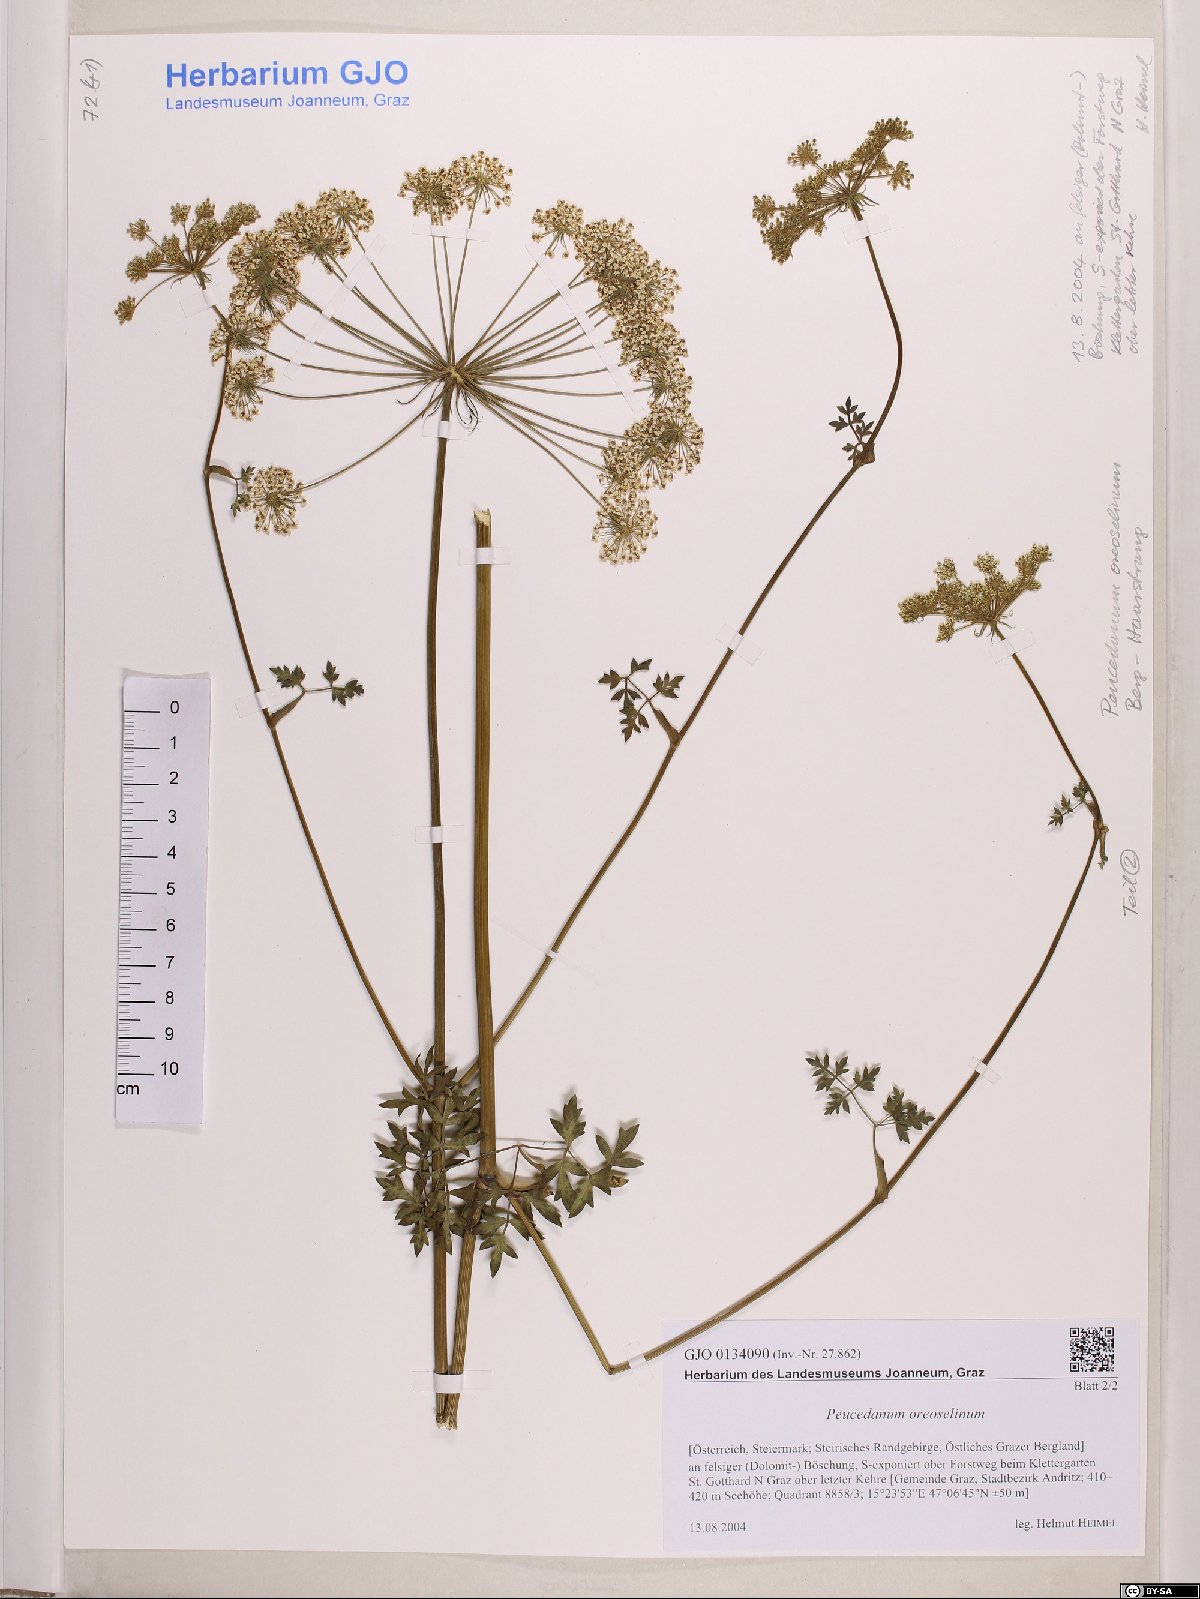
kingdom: Plantae
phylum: Tracheophyta
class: Magnoliopsida
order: Apiales
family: Apiaceae
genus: Oreoselinum
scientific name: Oreoselinum nigrum
